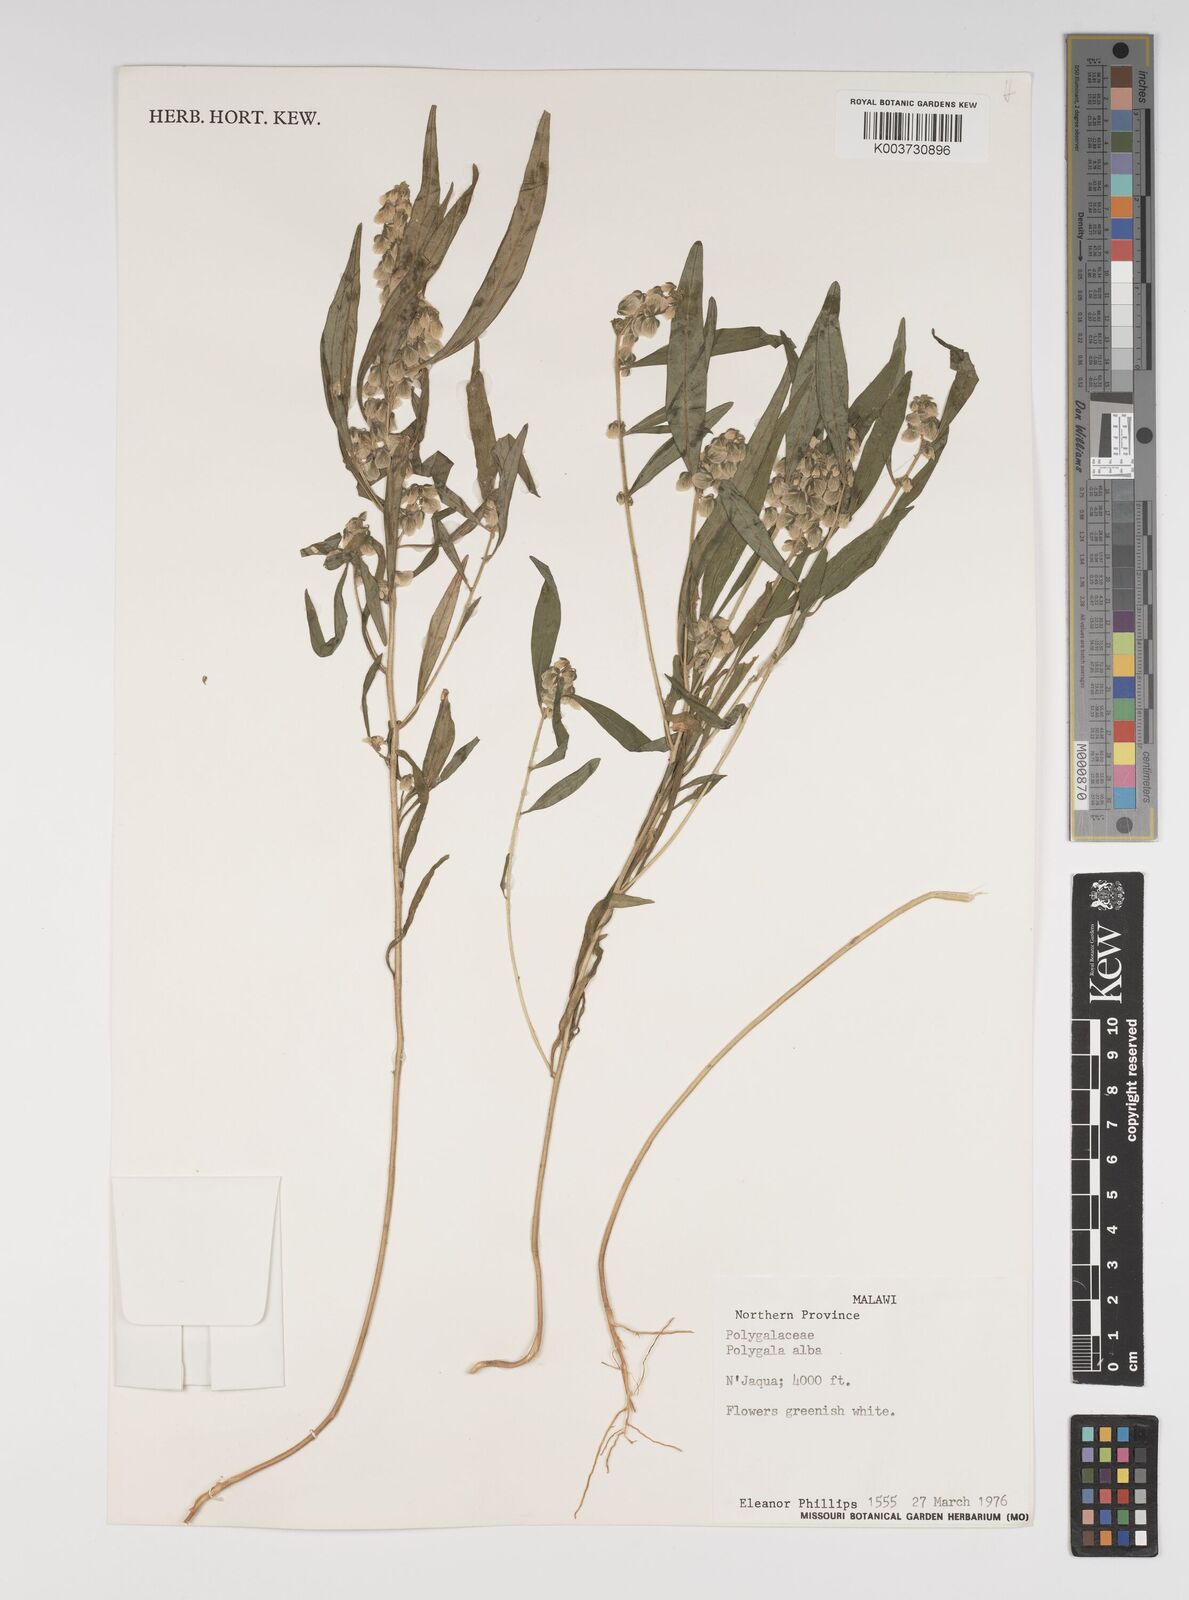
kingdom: Plantae
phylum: Tracheophyta
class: Magnoliopsida
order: Fabales
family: Polygalaceae
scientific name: Polygalaceae
